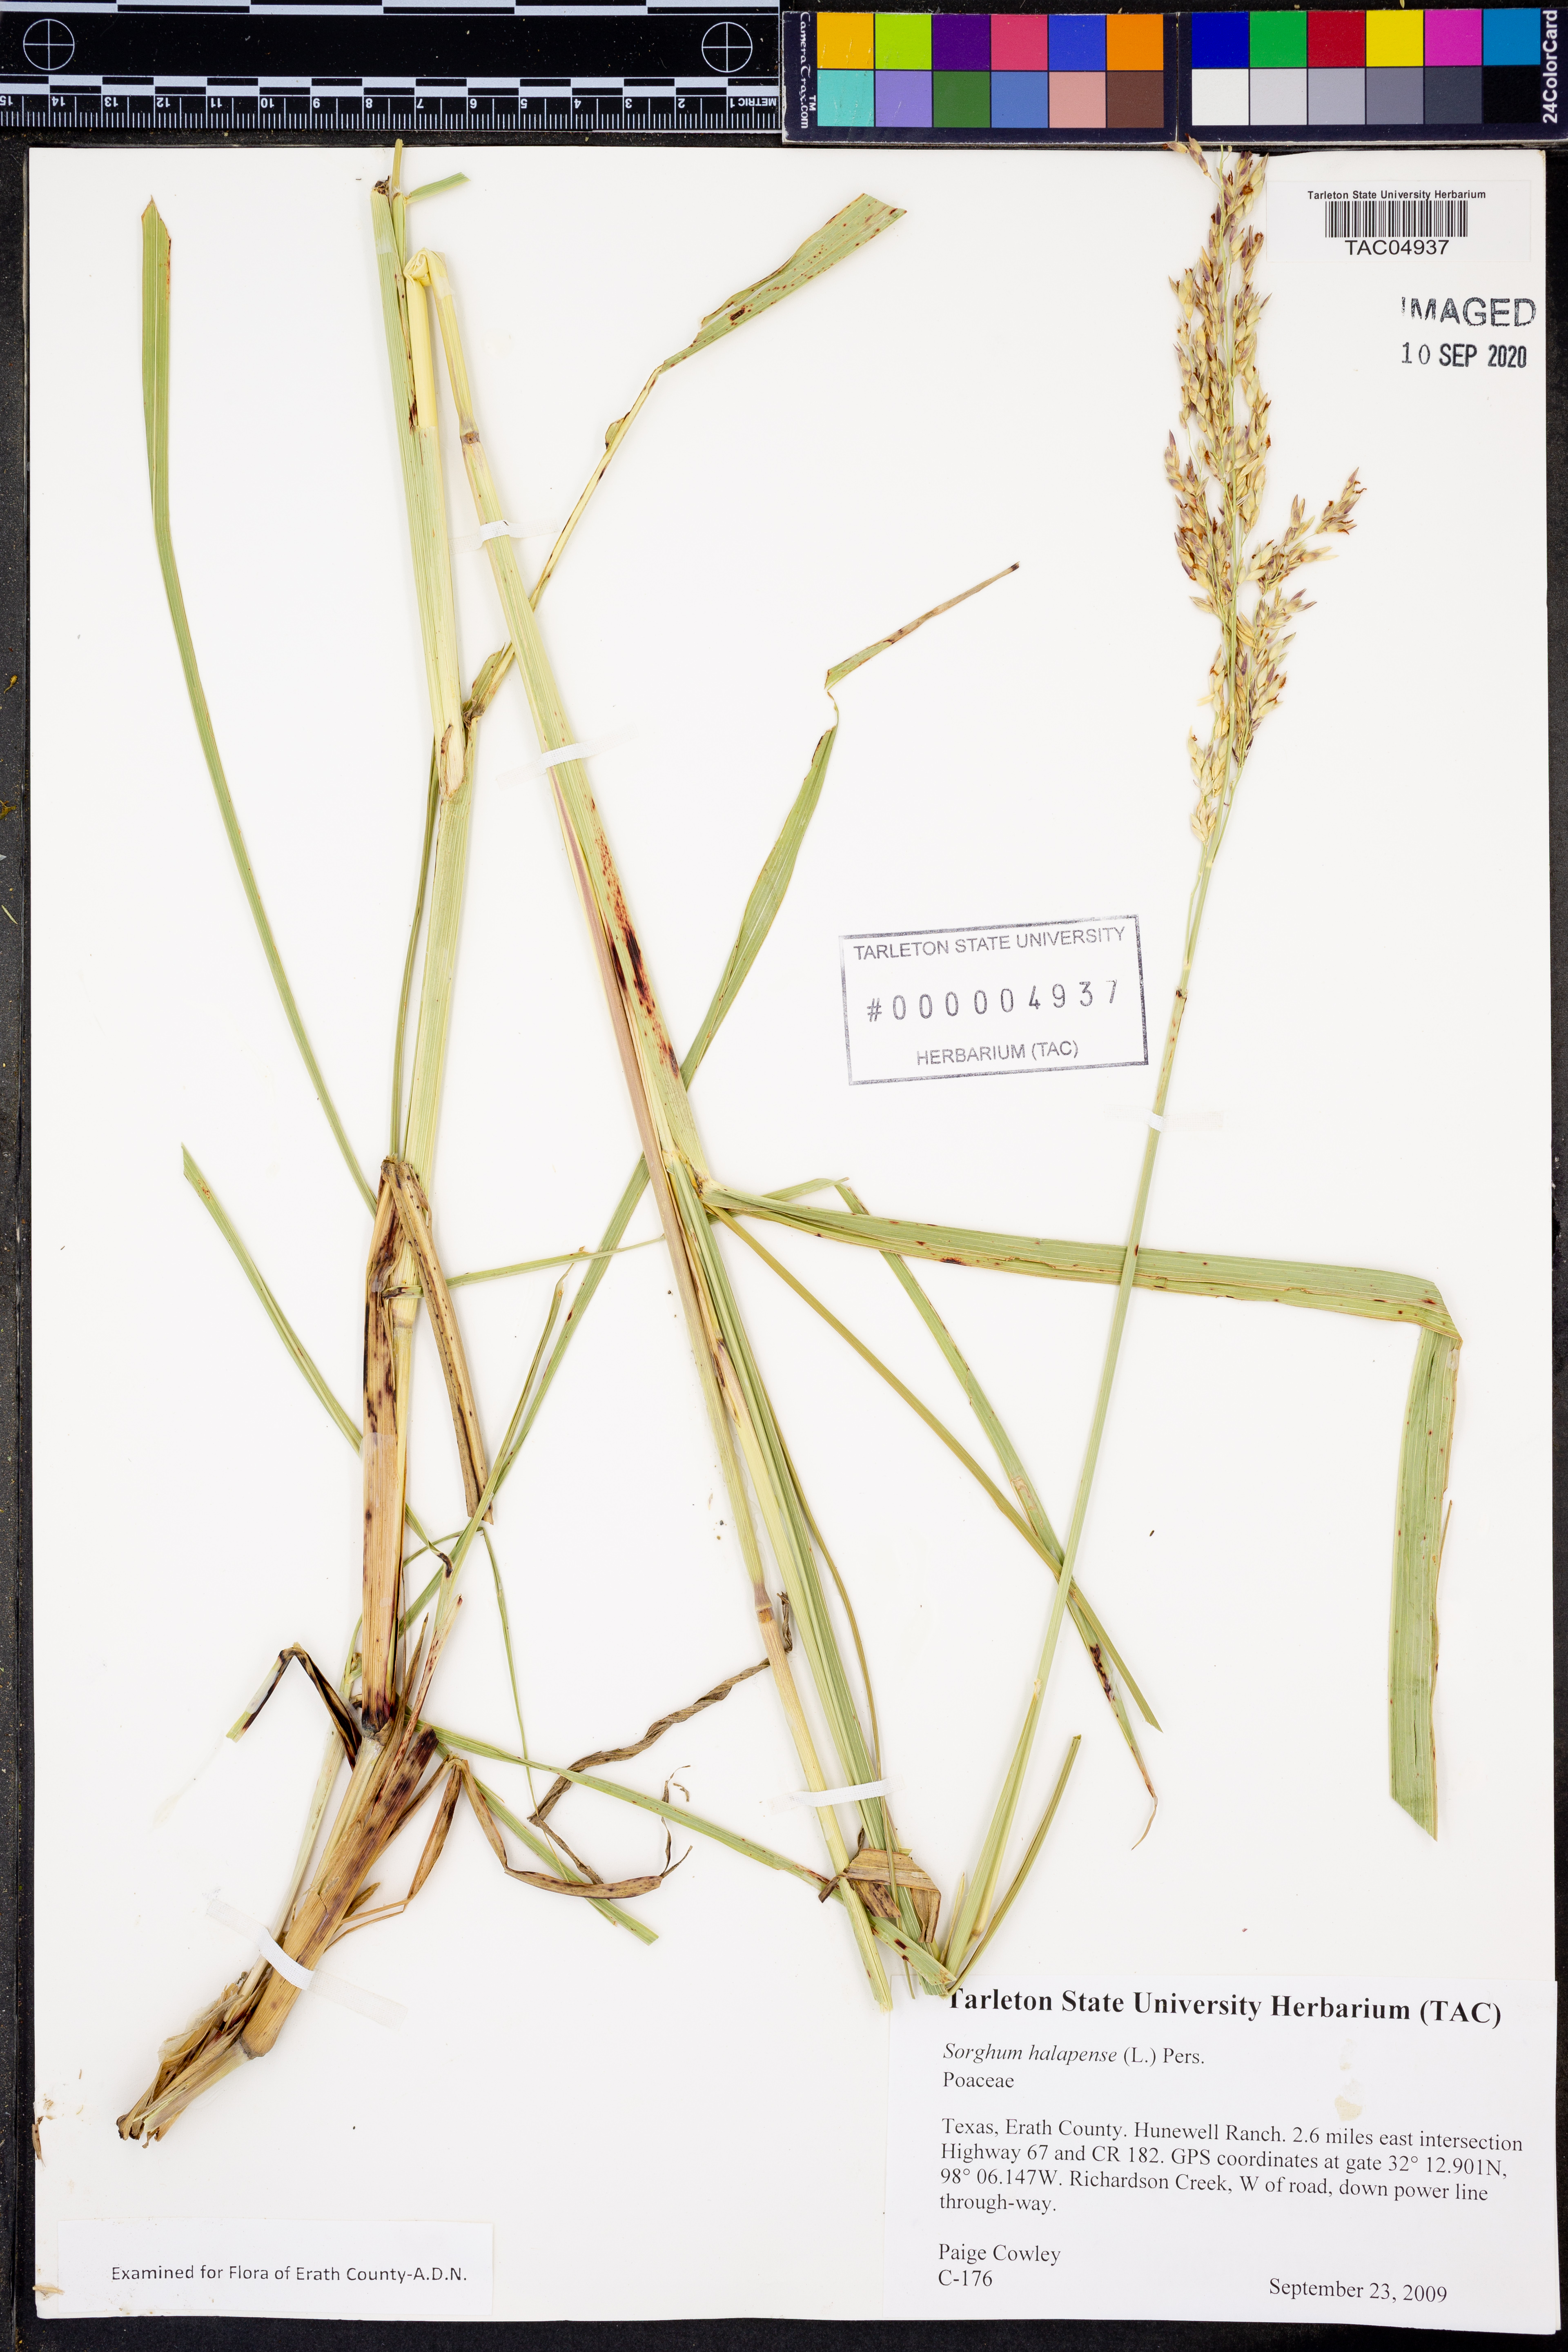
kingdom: Plantae
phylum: Tracheophyta
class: Liliopsida
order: Poales
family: Poaceae
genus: Sorghum
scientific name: Sorghum halepense
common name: Johnson-grass
